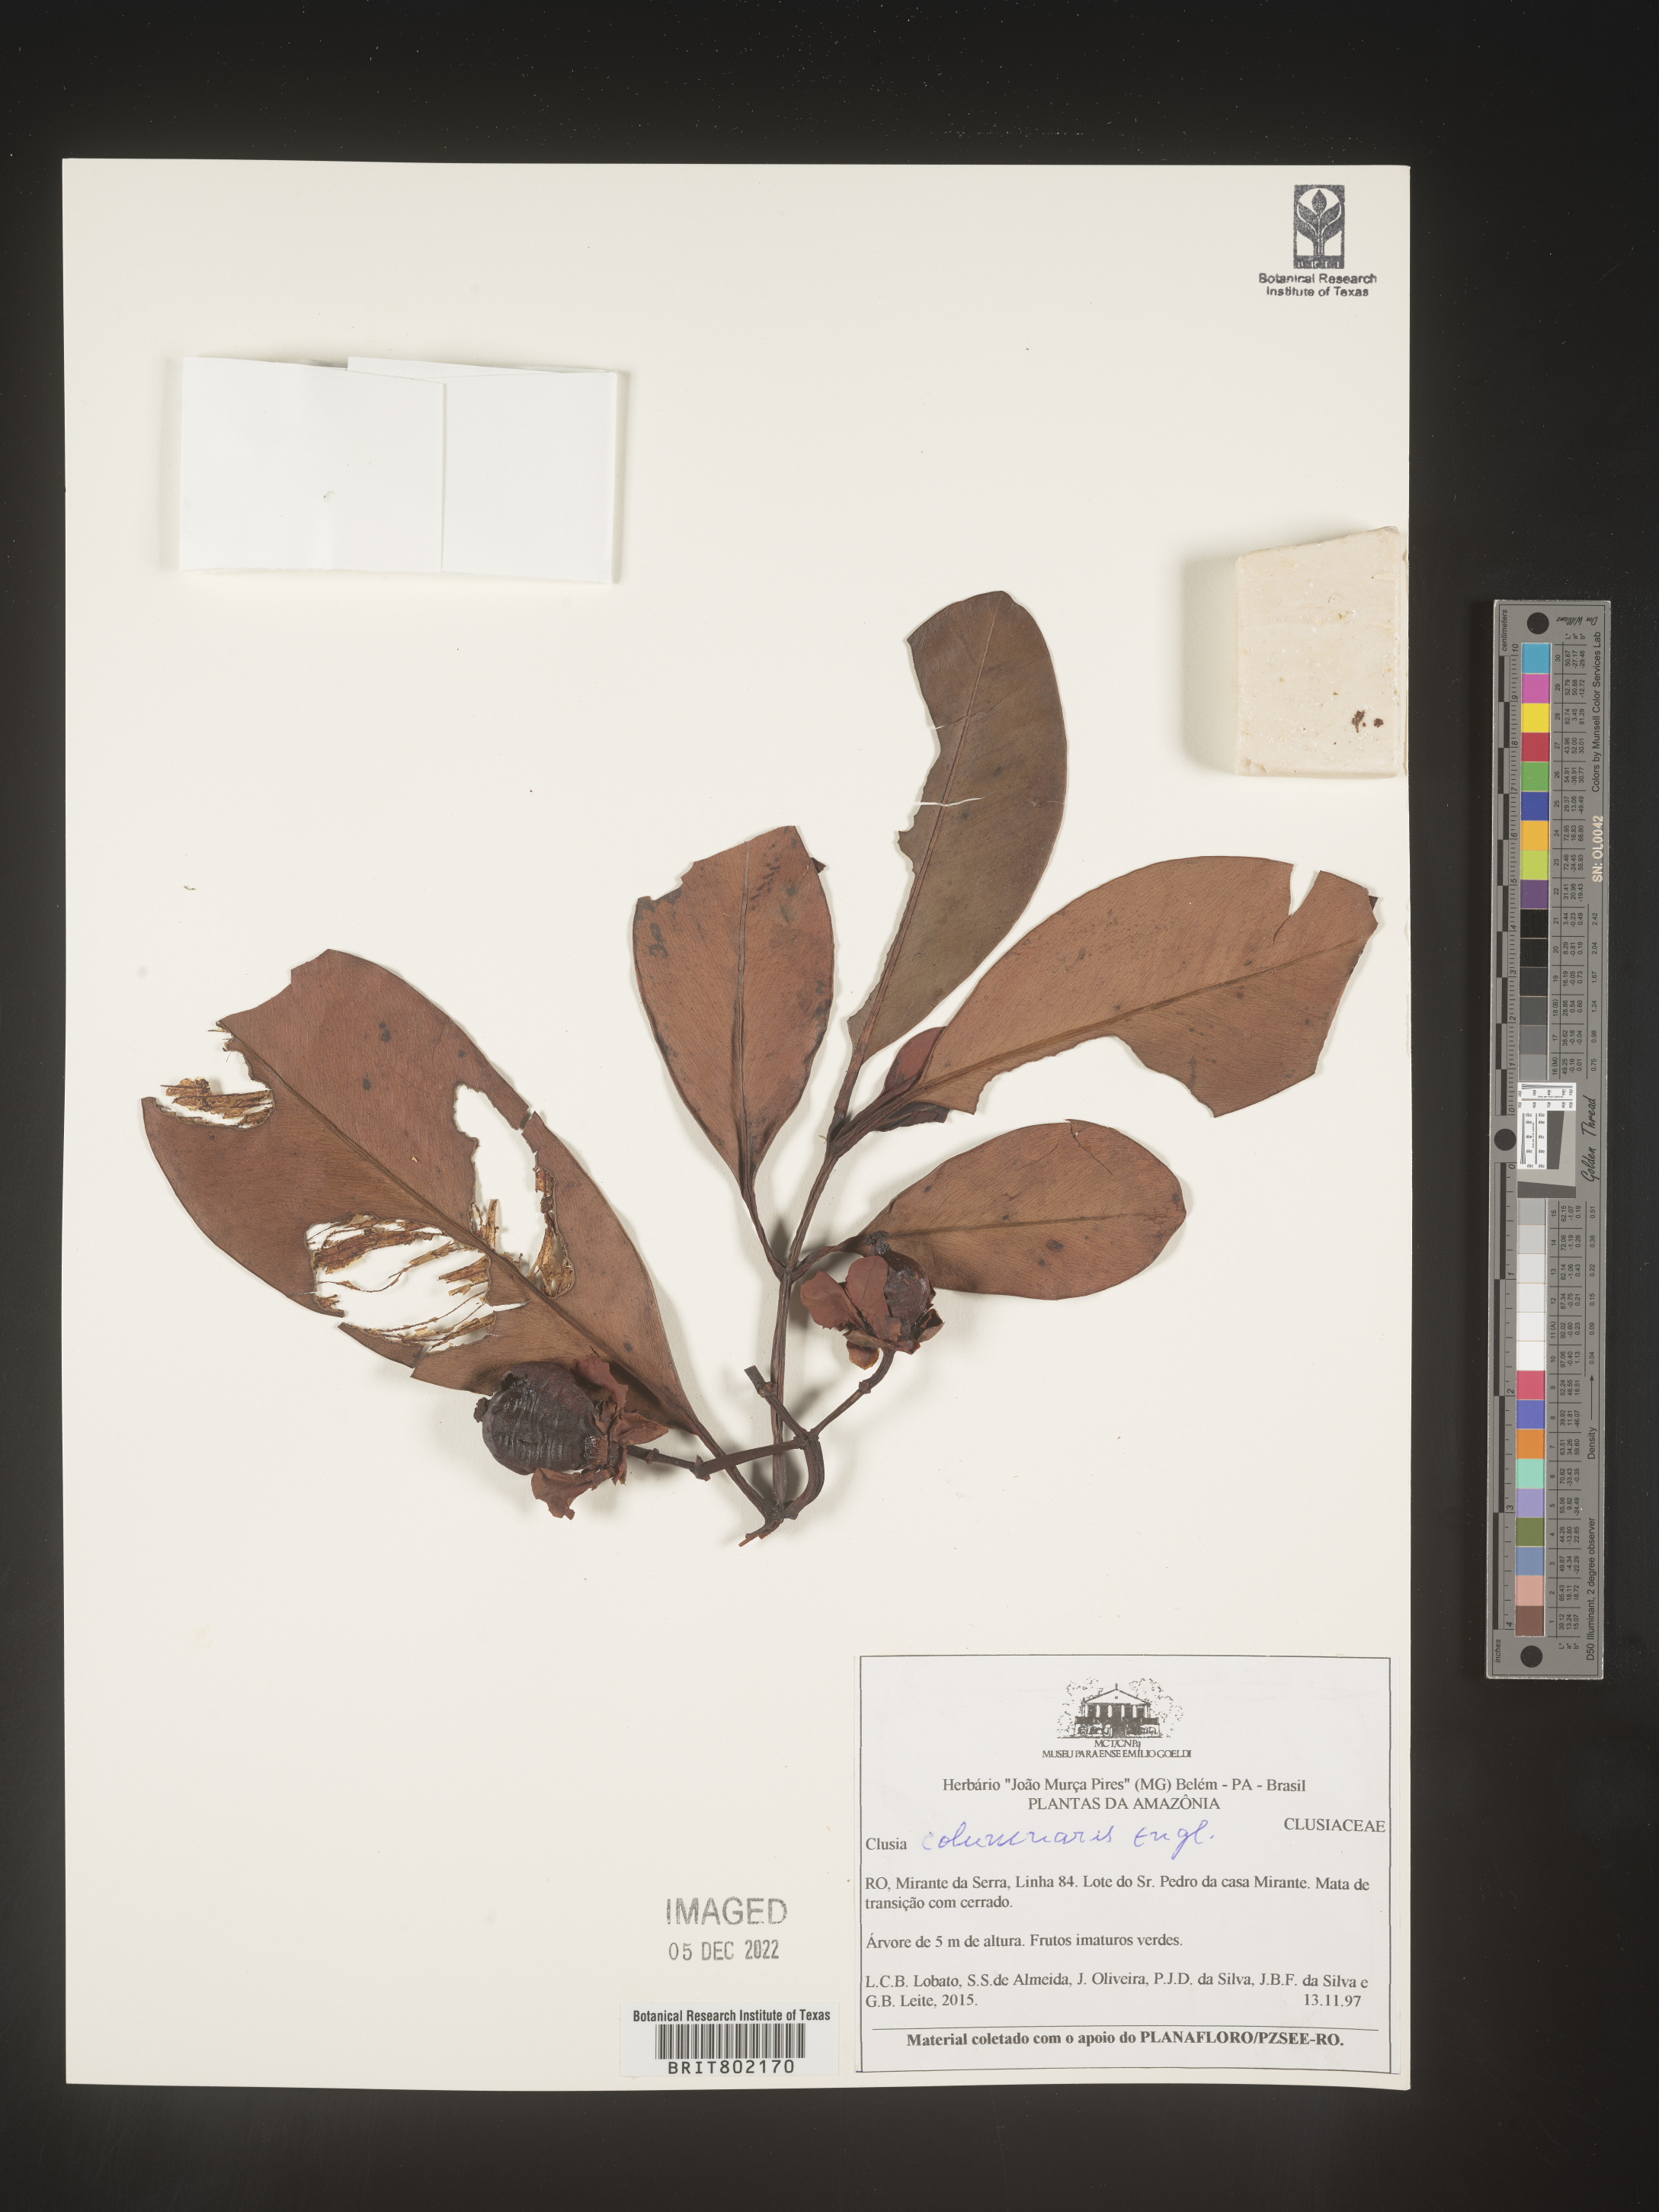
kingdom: Plantae
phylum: Tracheophyta
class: Magnoliopsida
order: Malpighiales
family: Clusiaceae
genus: Clusia
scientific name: Clusia columnaris
